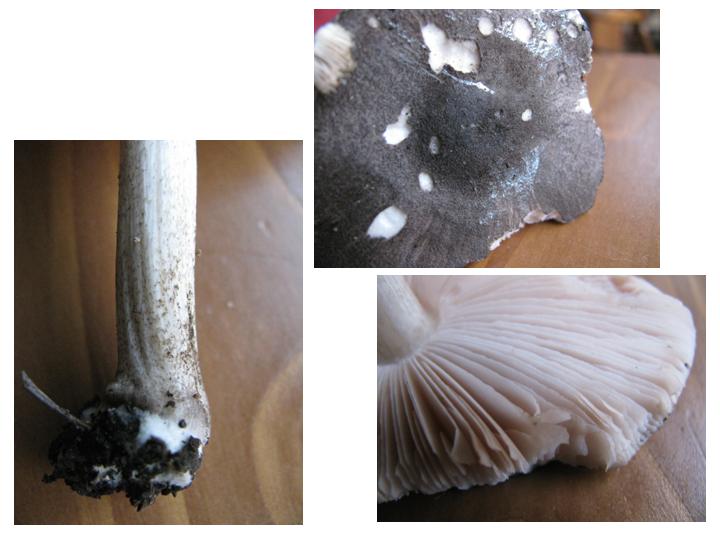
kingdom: Fungi
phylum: Basidiomycota
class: Agaricomycetes
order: Agaricales
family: Pluteaceae
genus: Pluteus
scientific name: Pluteus
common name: gråfibret skærmhat
